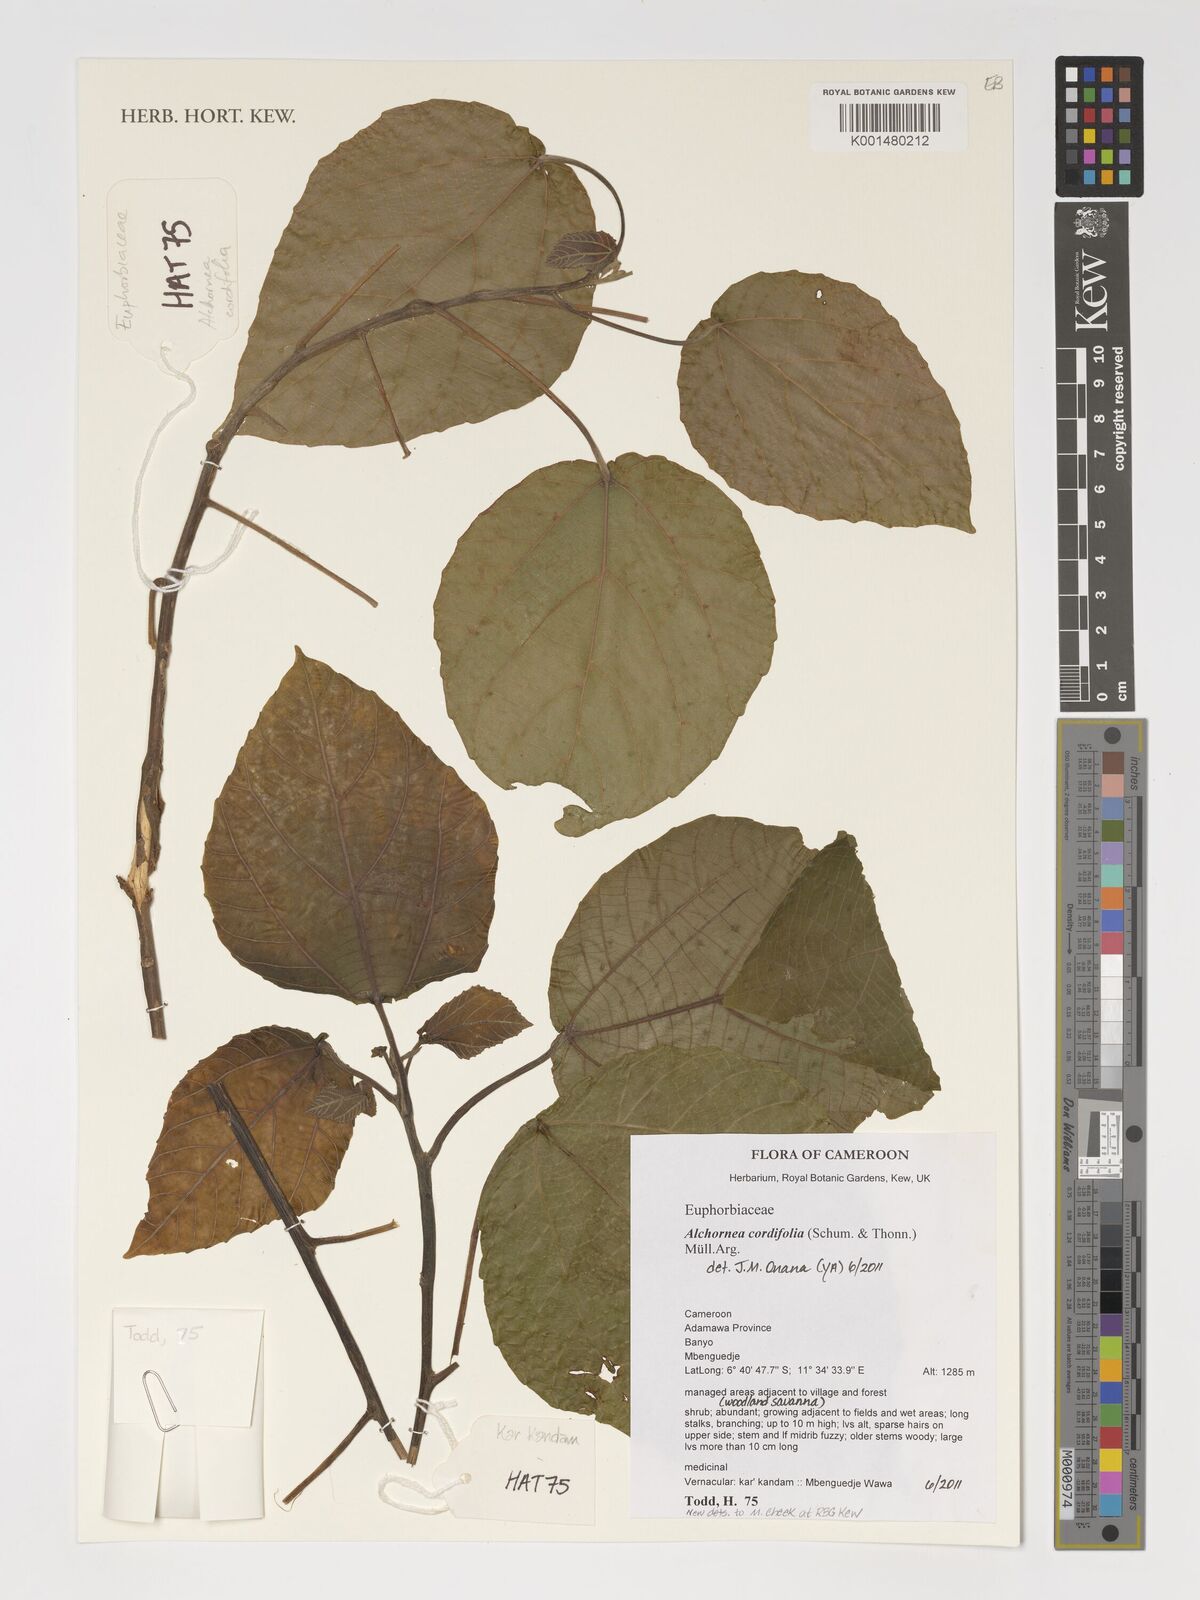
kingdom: Plantae
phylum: Tracheophyta
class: Magnoliopsida
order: Malpighiales
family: Euphorbiaceae
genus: Alchornea
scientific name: Alchornea cordifolia
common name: Christmasbush
